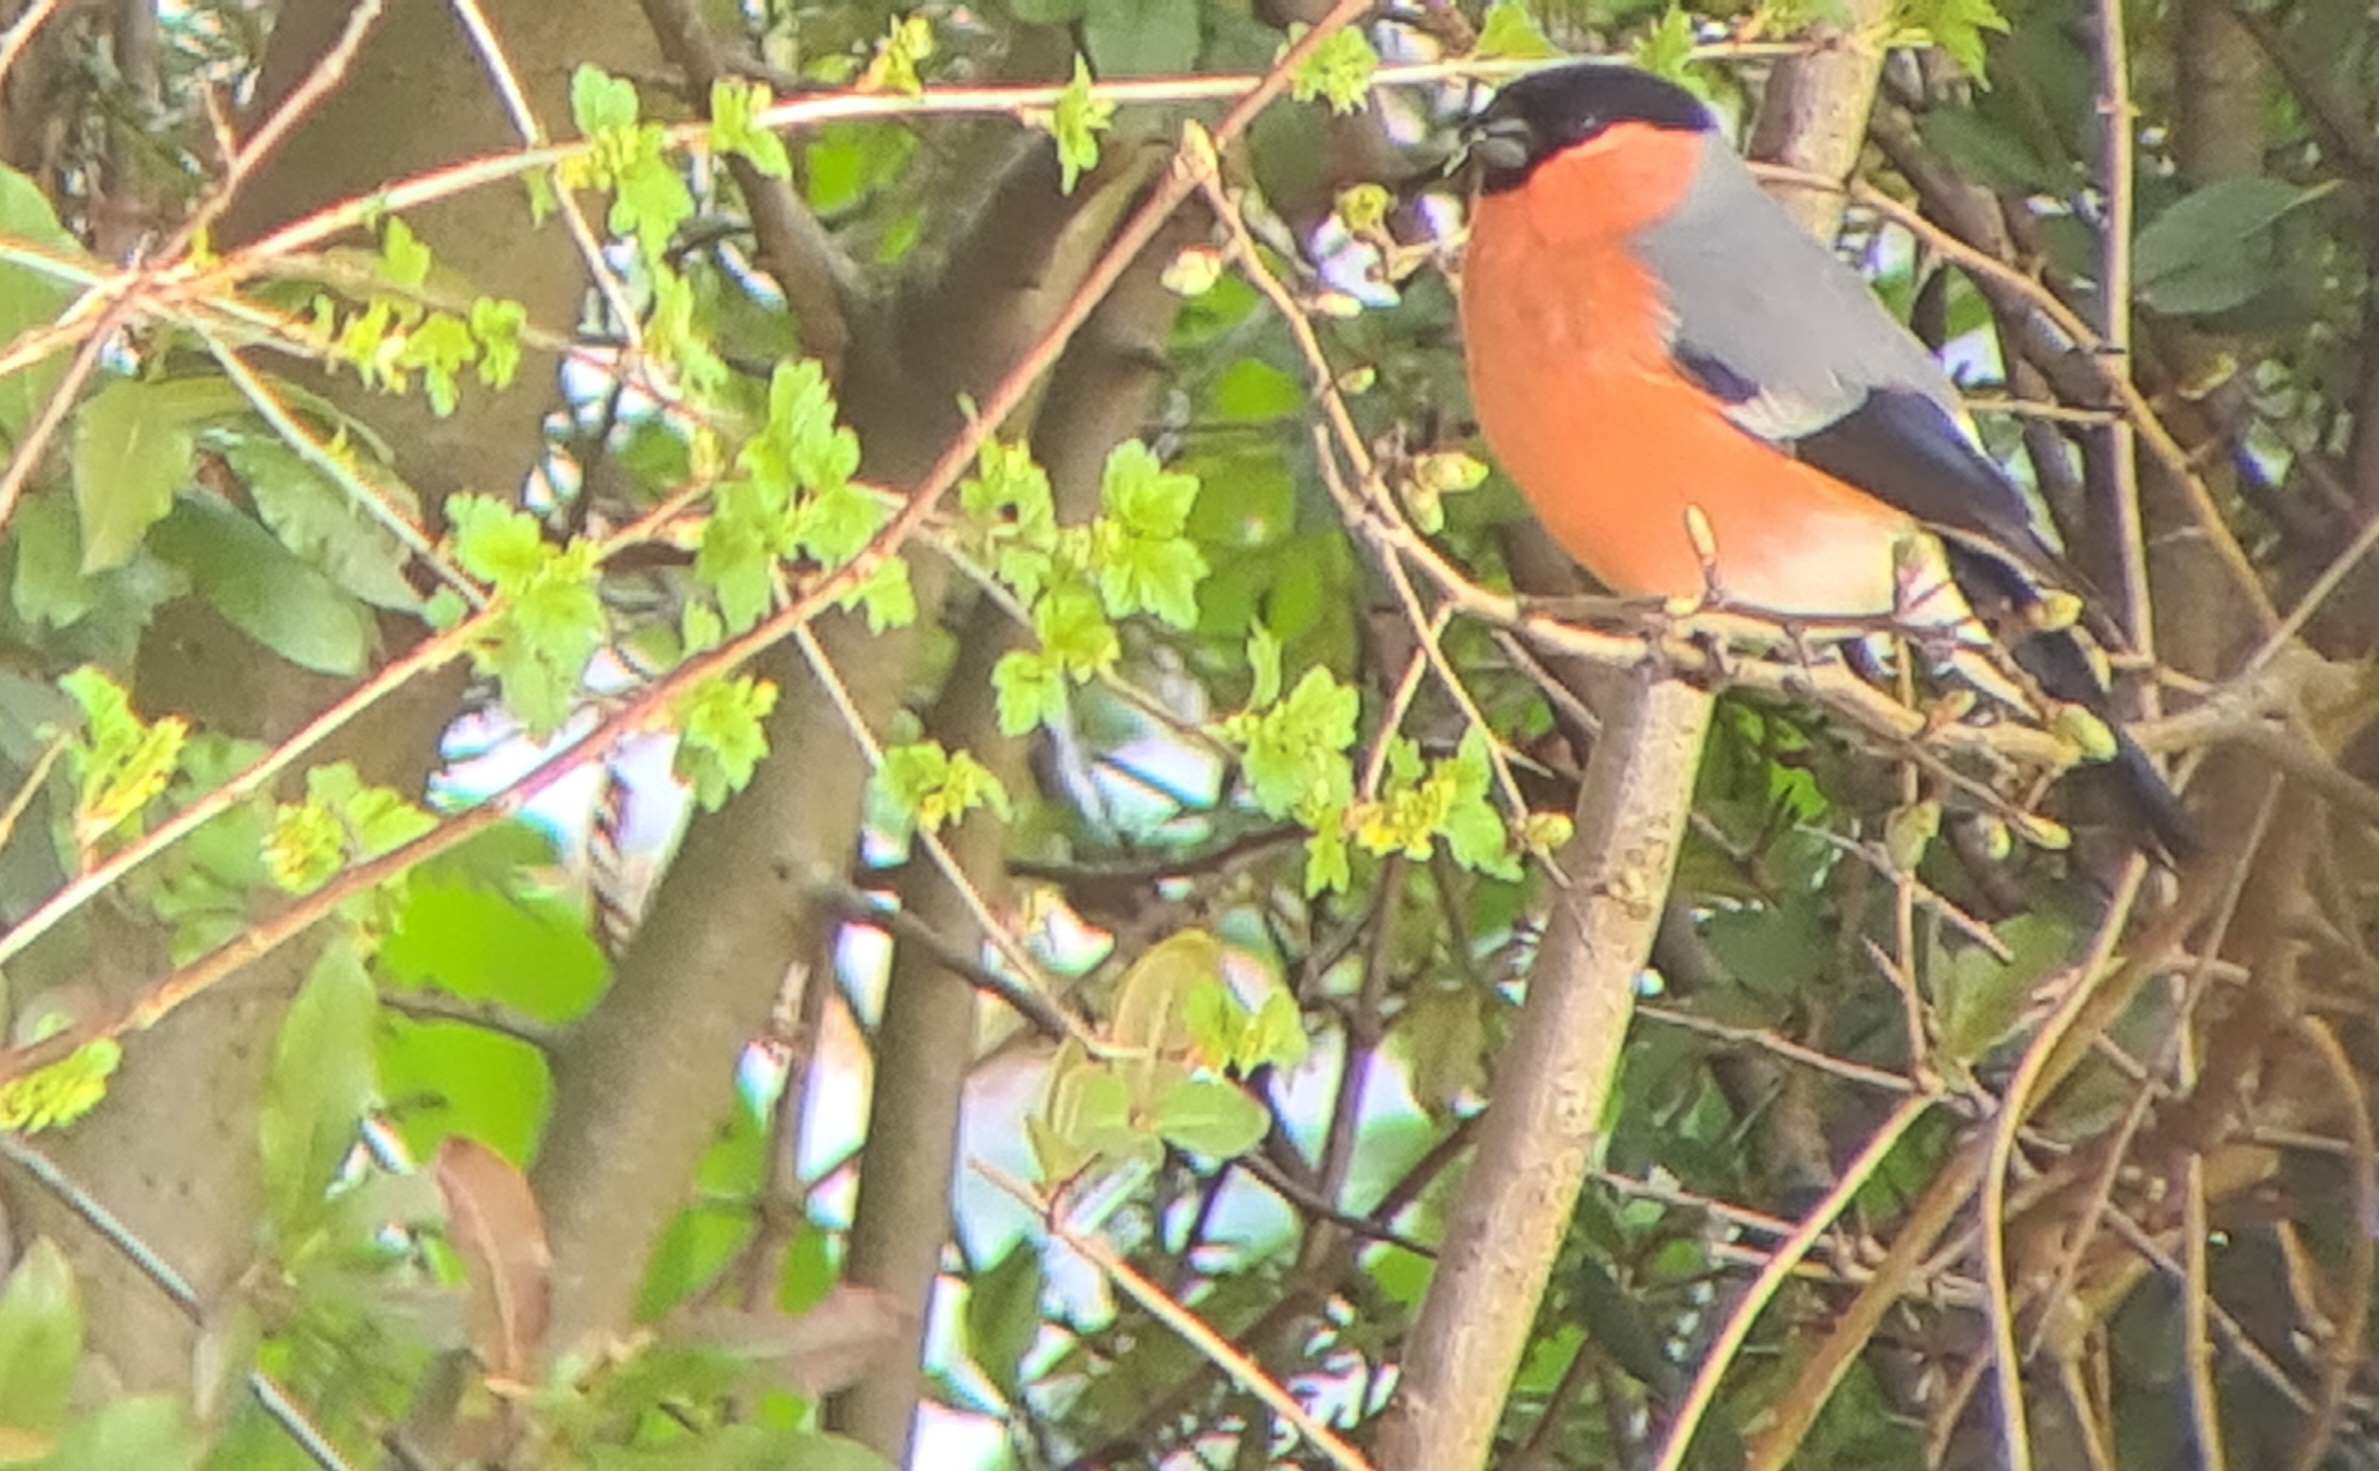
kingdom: Animalia
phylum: Chordata
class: Aves
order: Passeriformes
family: Fringillidae
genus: Pyrrhula
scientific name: Pyrrhula pyrrhula
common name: Dompap
